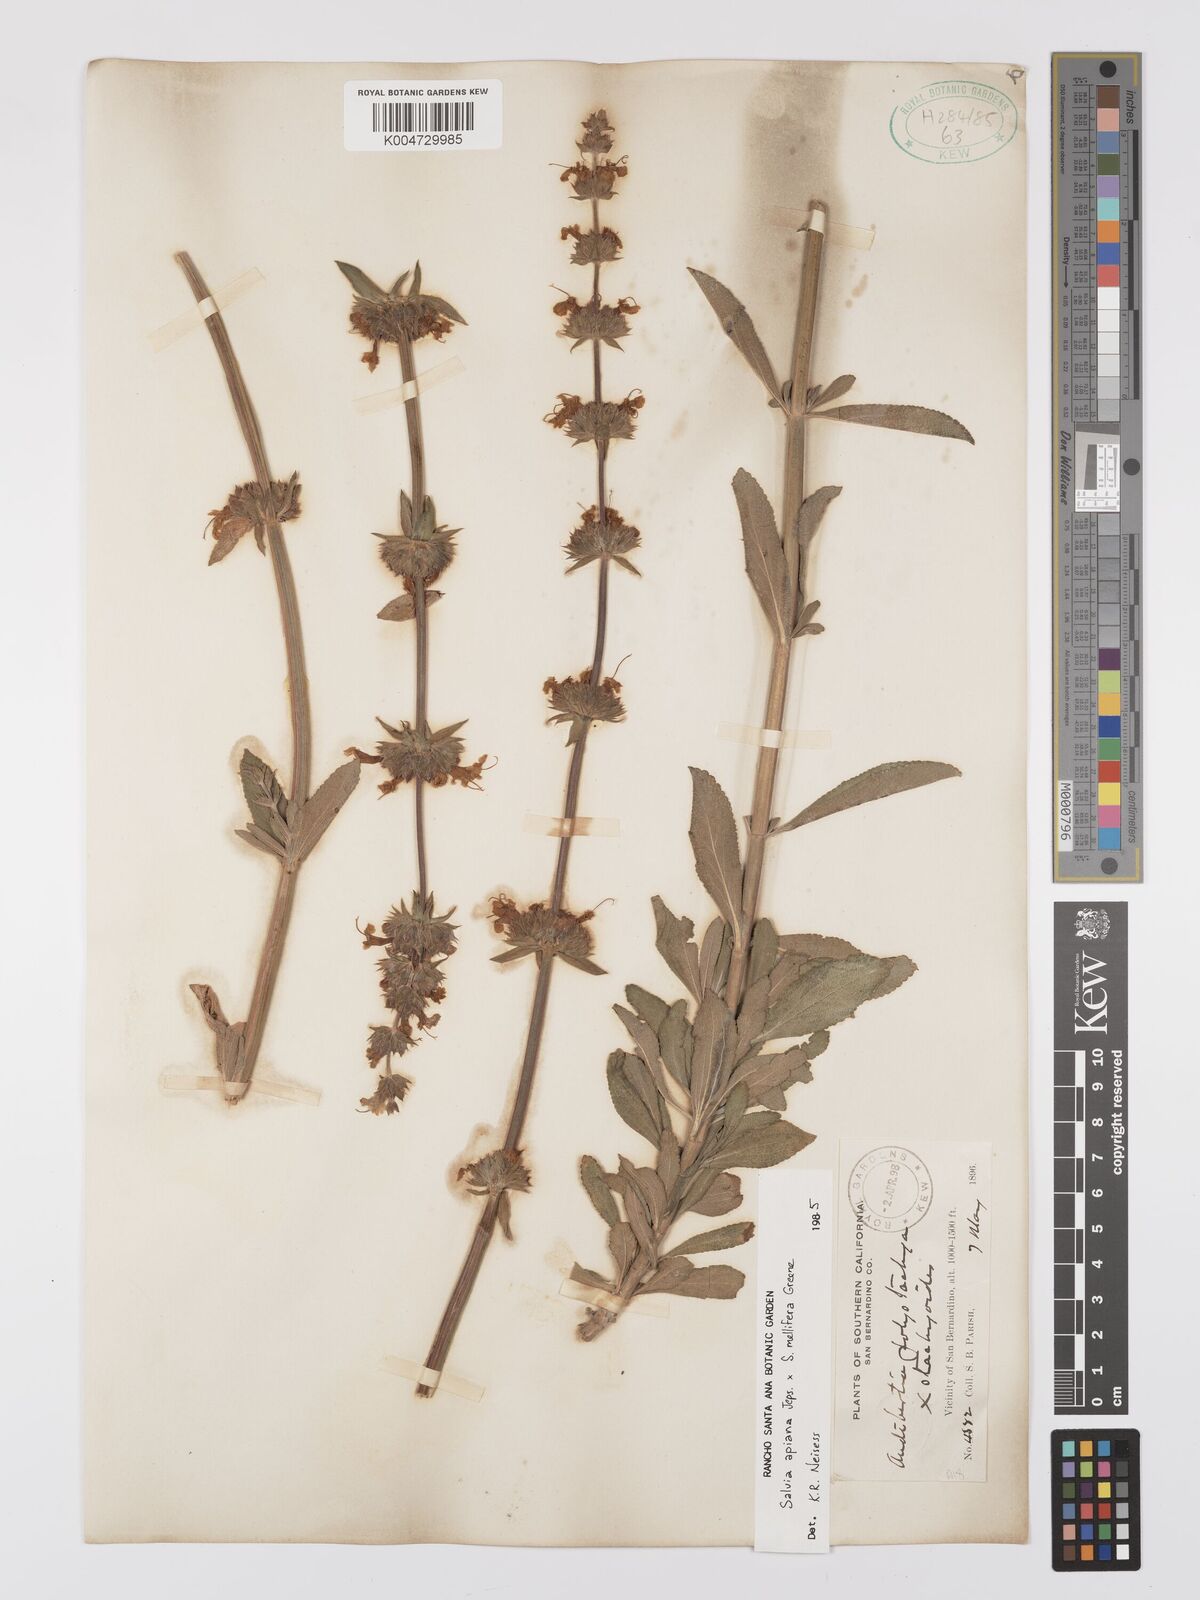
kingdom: Plantae
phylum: Tracheophyta
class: Magnoliopsida
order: Lamiales
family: Lamiaceae
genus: Salvia
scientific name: Salvia apiana
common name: White sage
